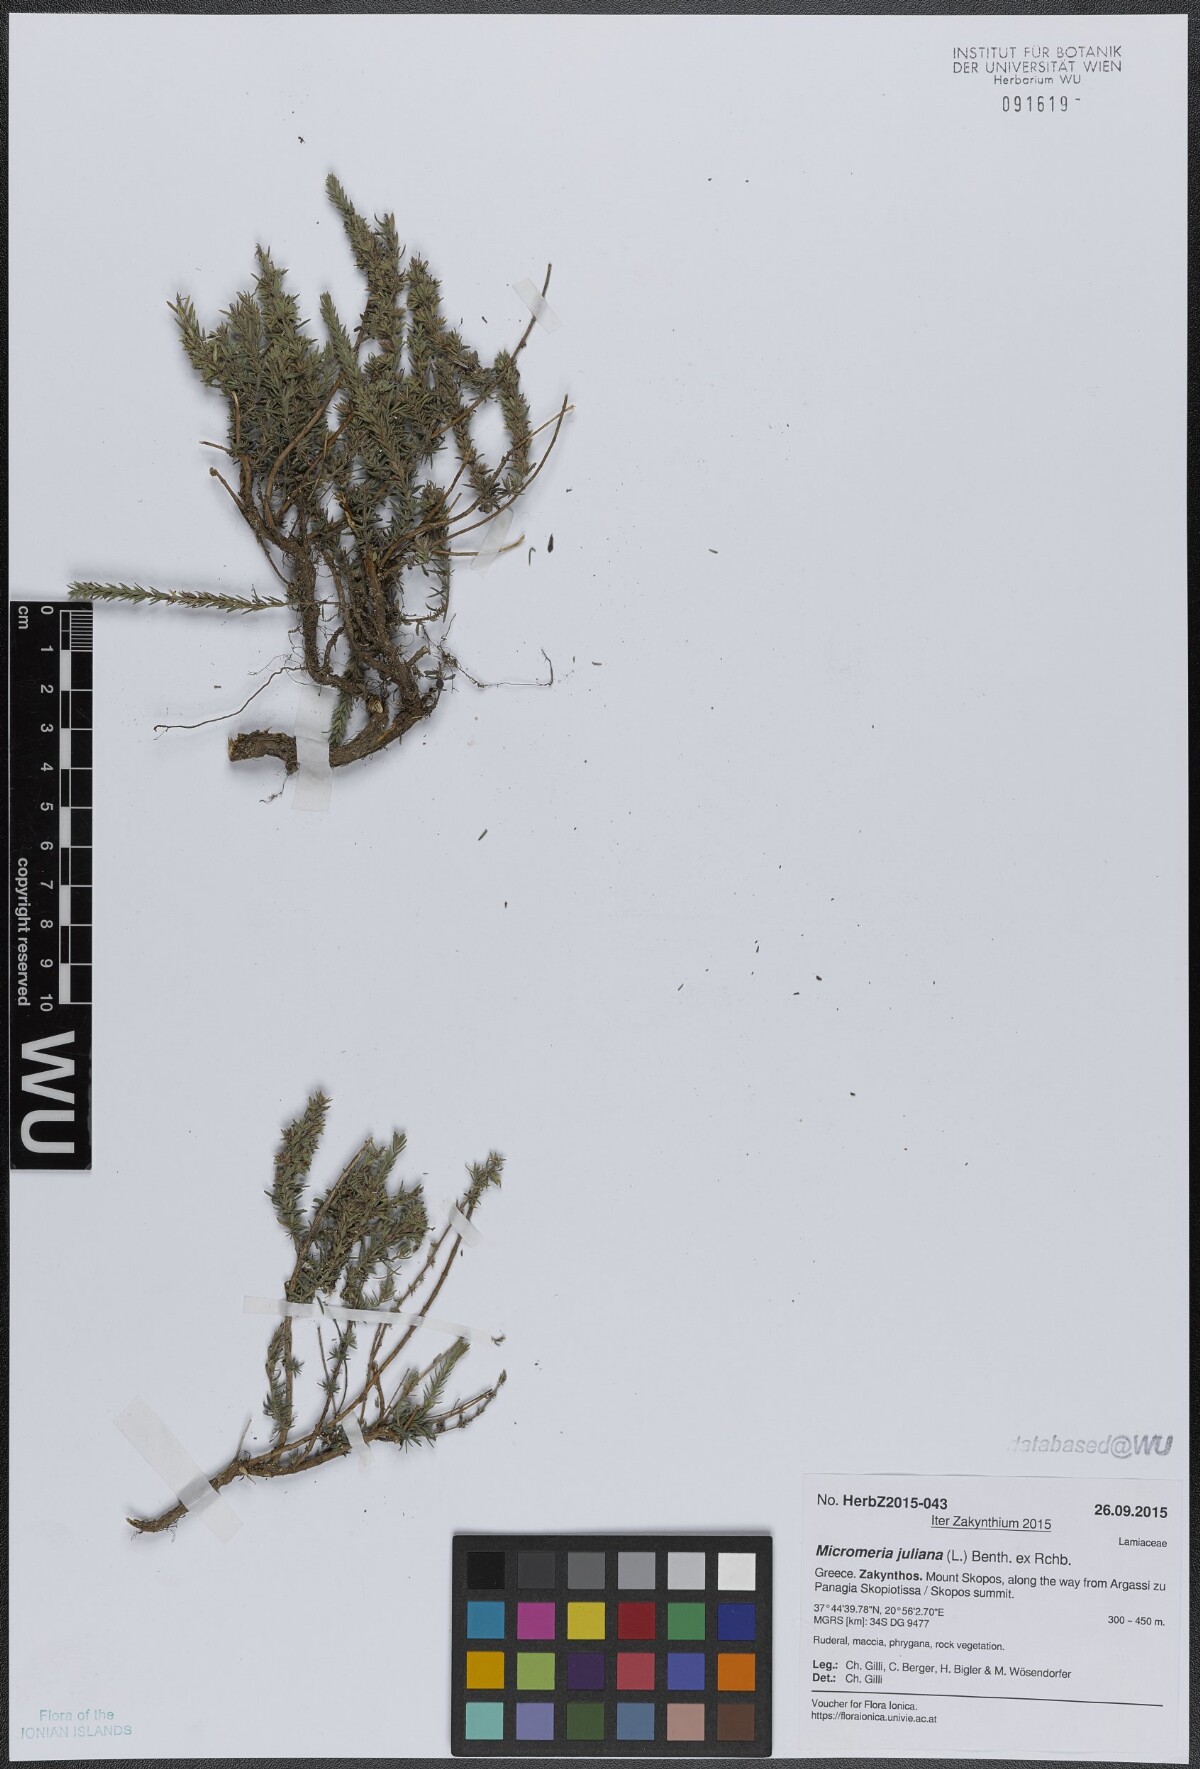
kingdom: Plantae
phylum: Tracheophyta
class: Magnoliopsida
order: Lamiales
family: Lamiaceae
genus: Micromeria
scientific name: Micromeria juliana
